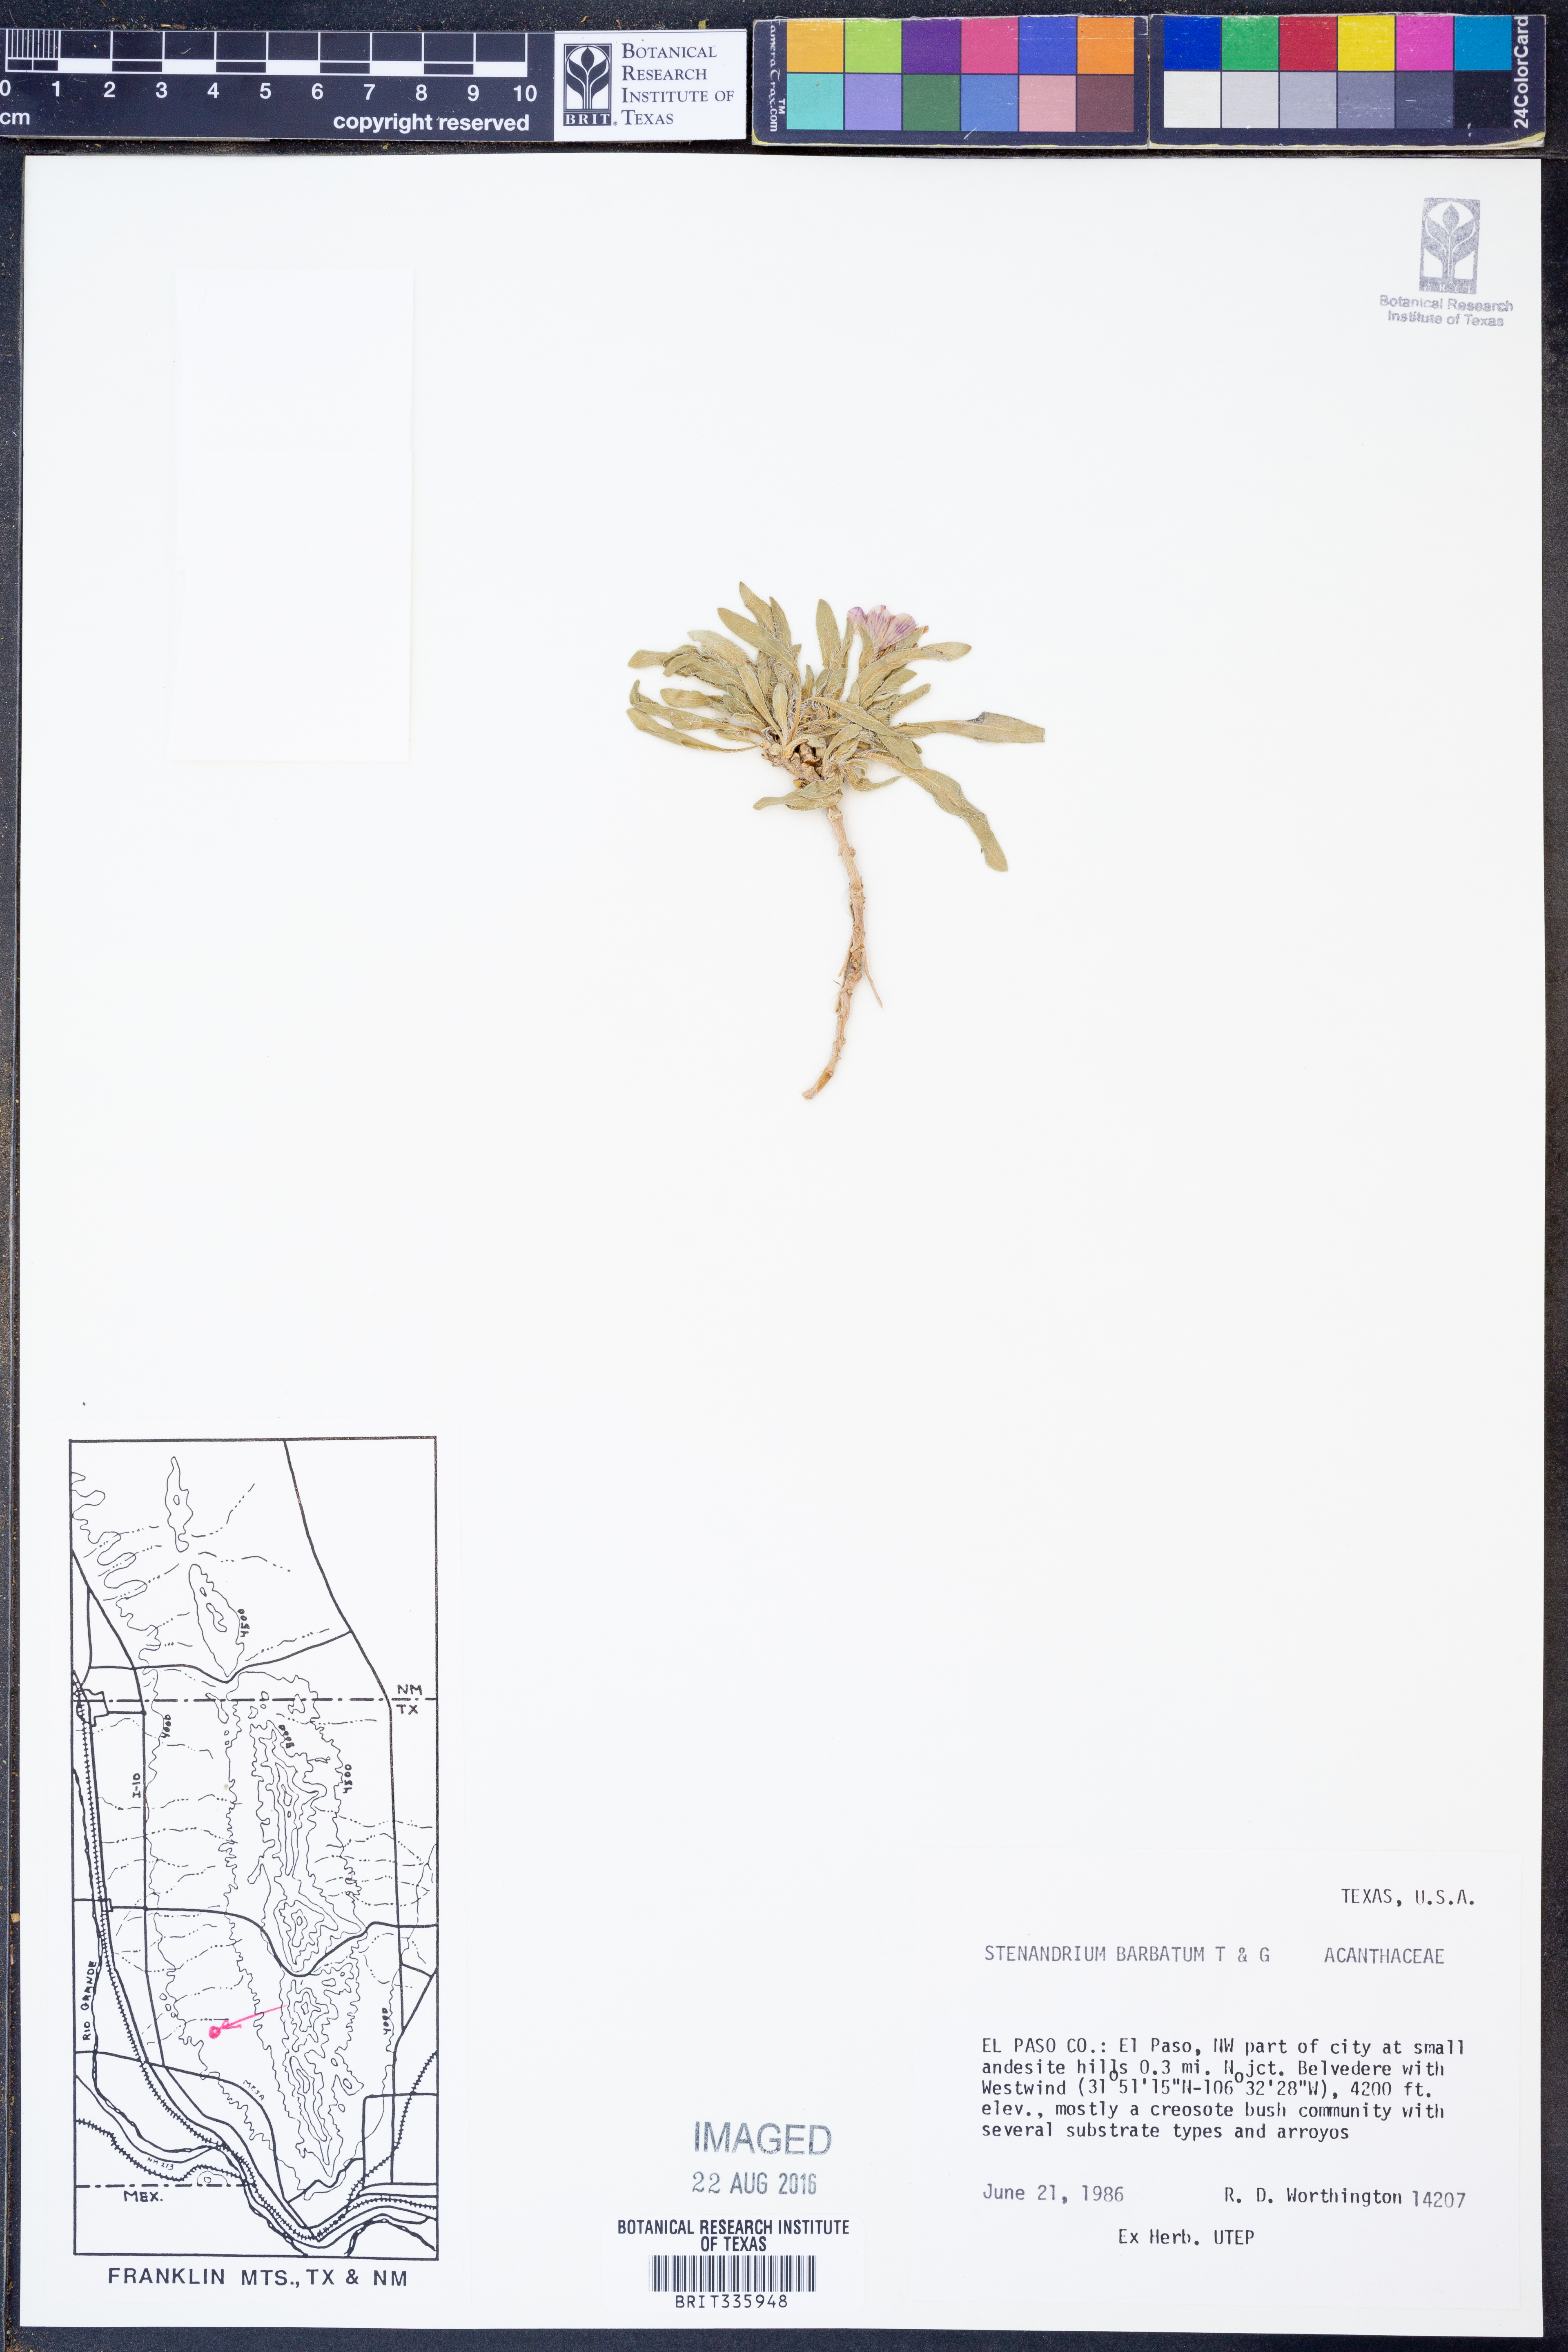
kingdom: Plantae
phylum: Tracheophyta
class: Magnoliopsida
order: Lamiales
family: Acanthaceae
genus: Stenandrium
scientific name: Stenandrium barbatum
